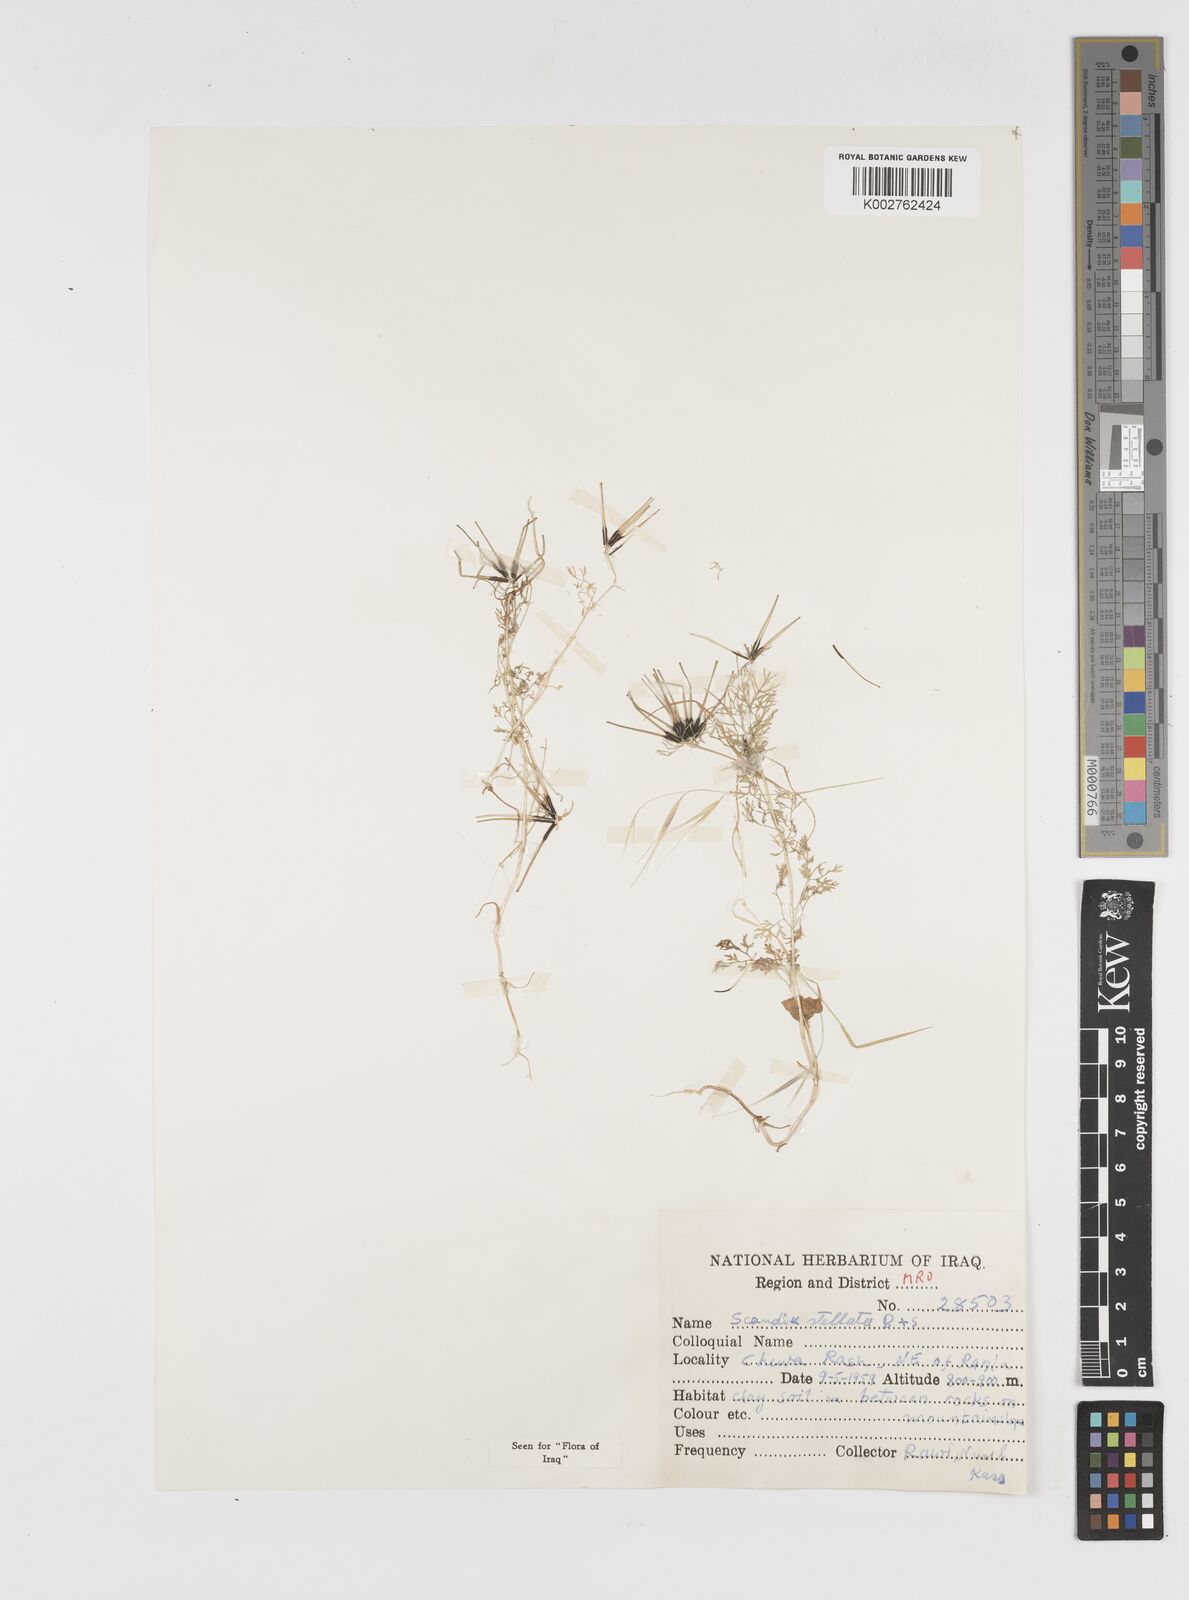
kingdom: Plantae
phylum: Tracheophyta
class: Magnoliopsida
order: Apiales
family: Apiaceae
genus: Scandix
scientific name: Scandix stellata
